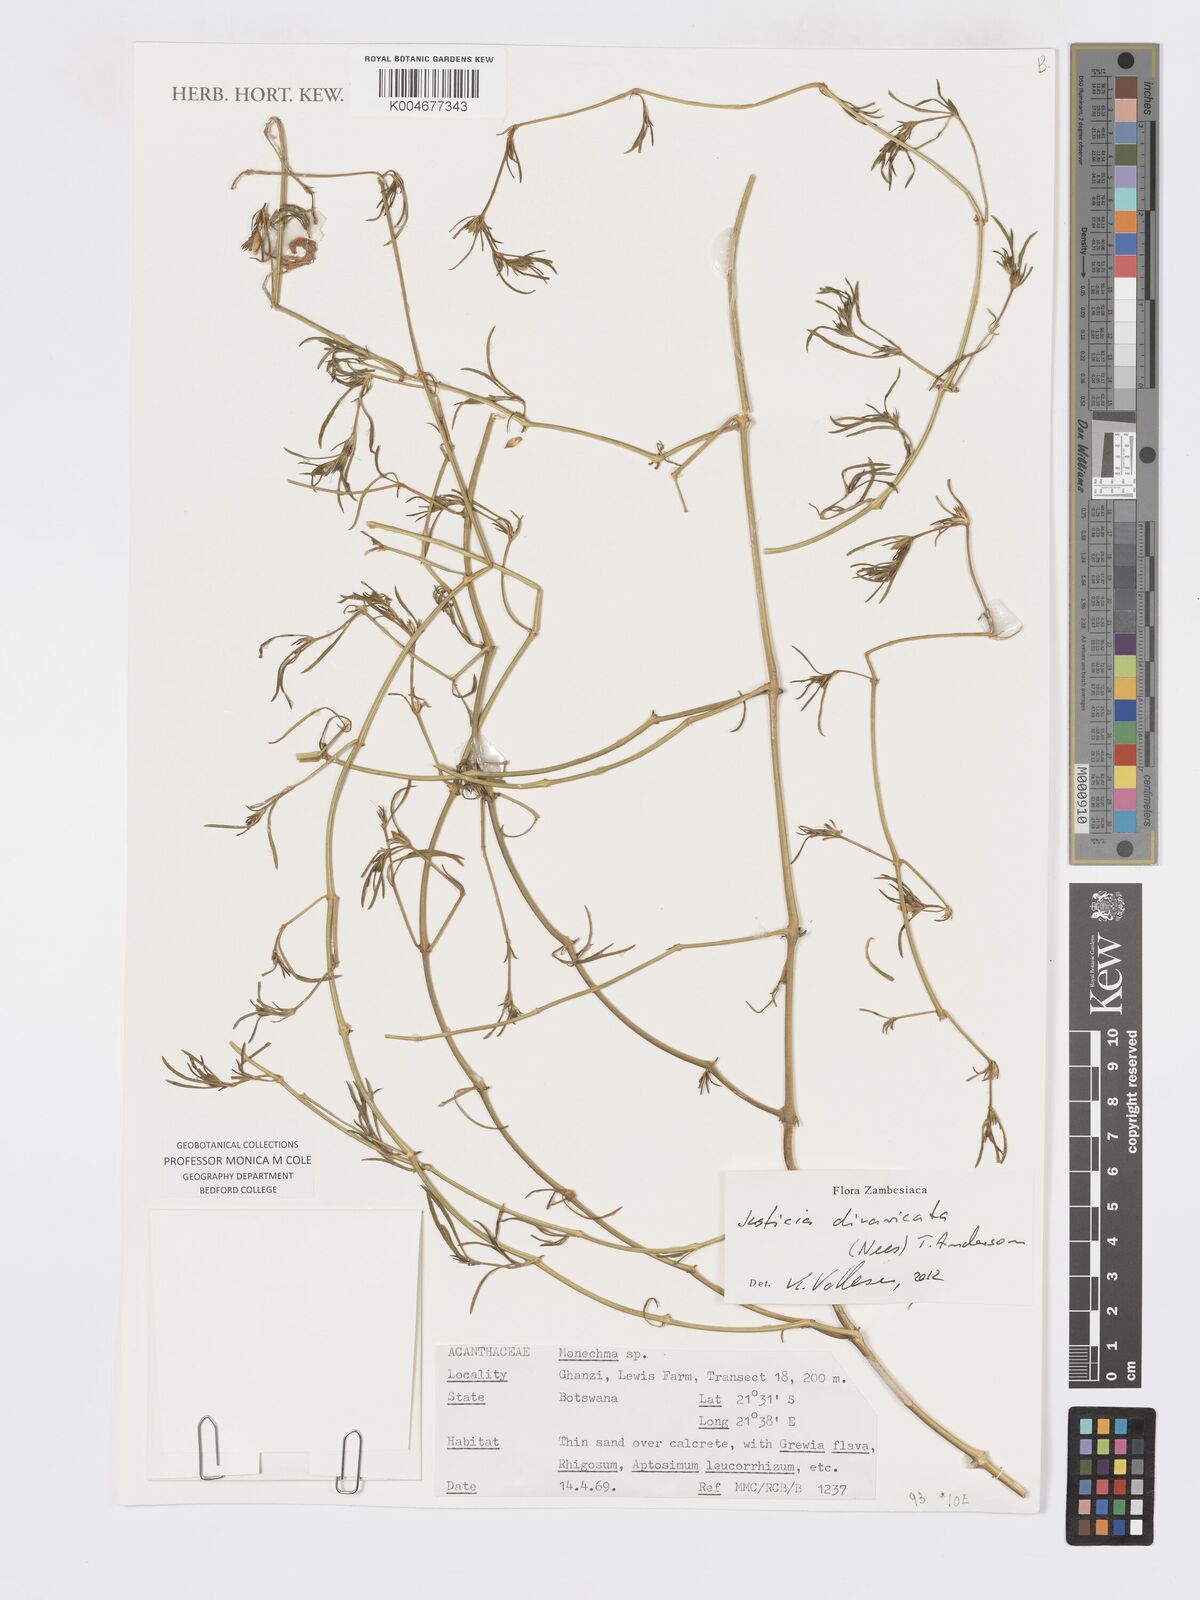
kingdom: Plantae
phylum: Tracheophyta
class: Magnoliopsida
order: Lamiales
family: Acanthaceae
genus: Pogonospermum
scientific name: Pogonospermum
